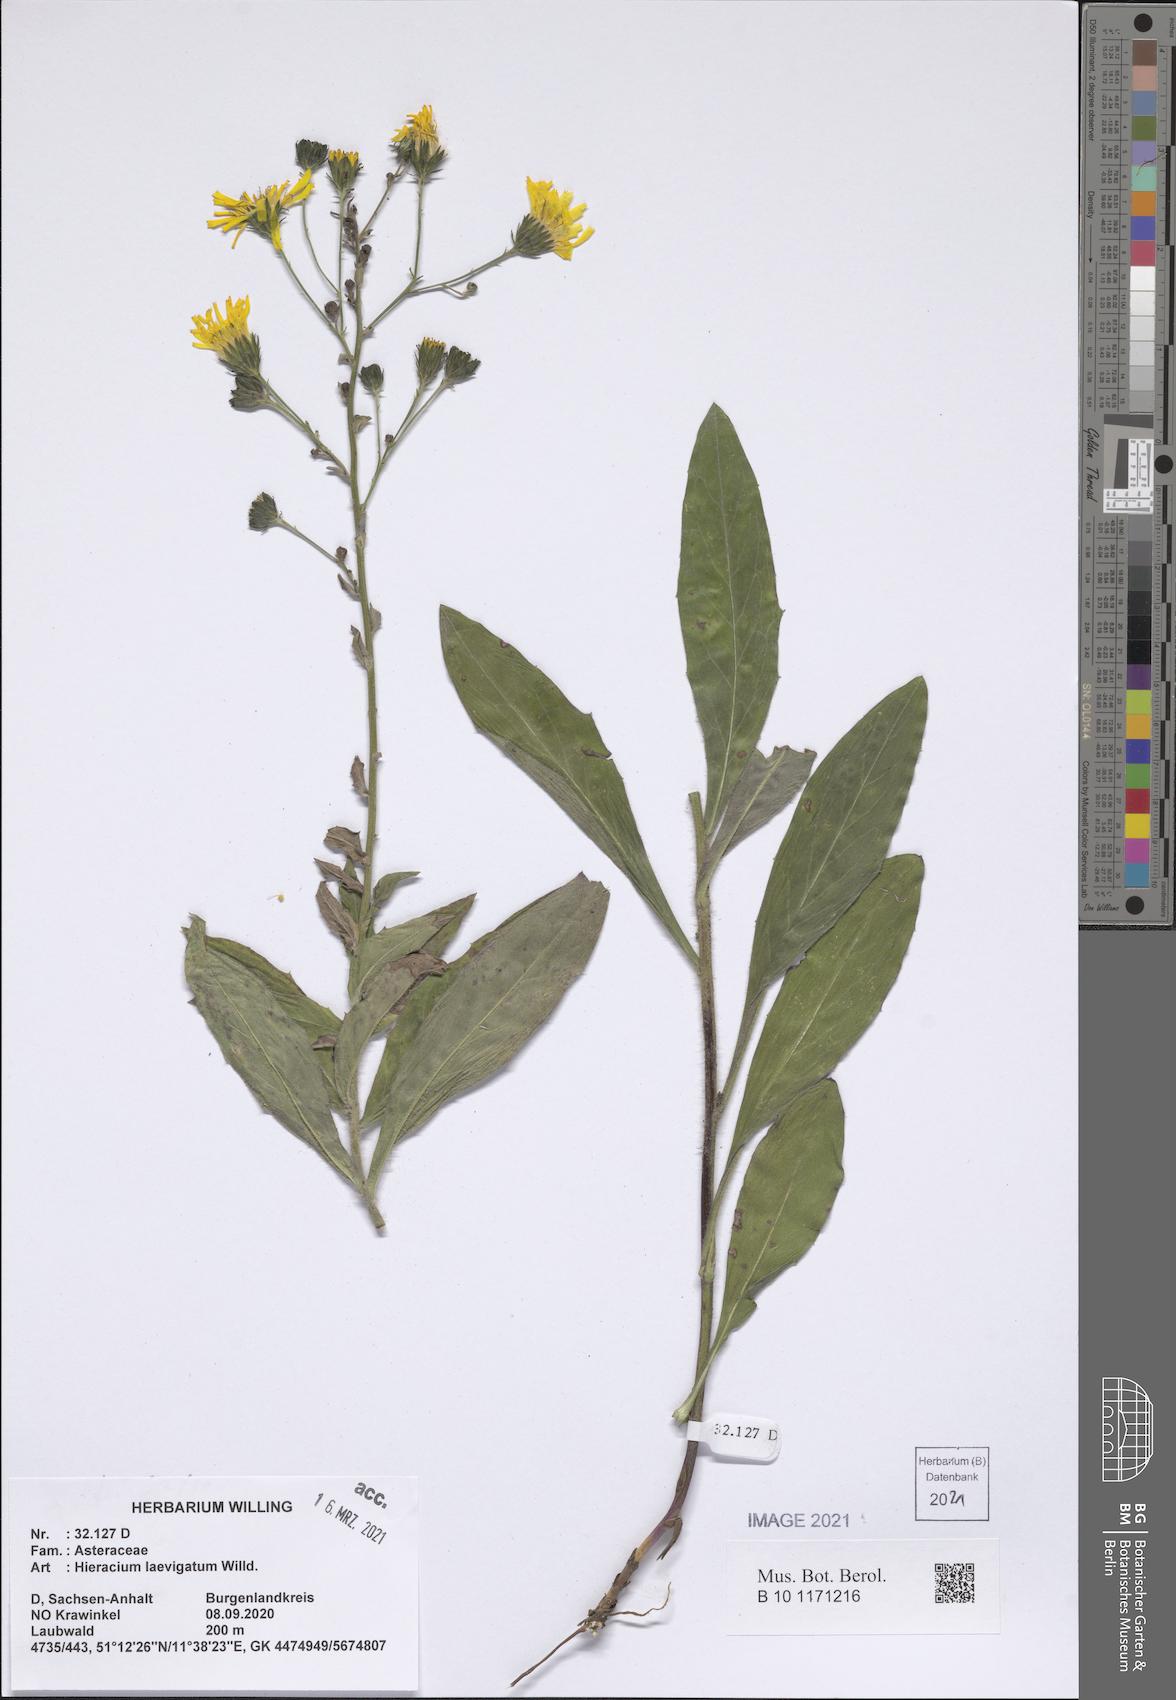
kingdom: Plantae
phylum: Tracheophyta
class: Magnoliopsida
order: Asterales
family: Asteraceae
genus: Hieracium
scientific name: Hieracium laevigatum
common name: Smooth hawkweed
